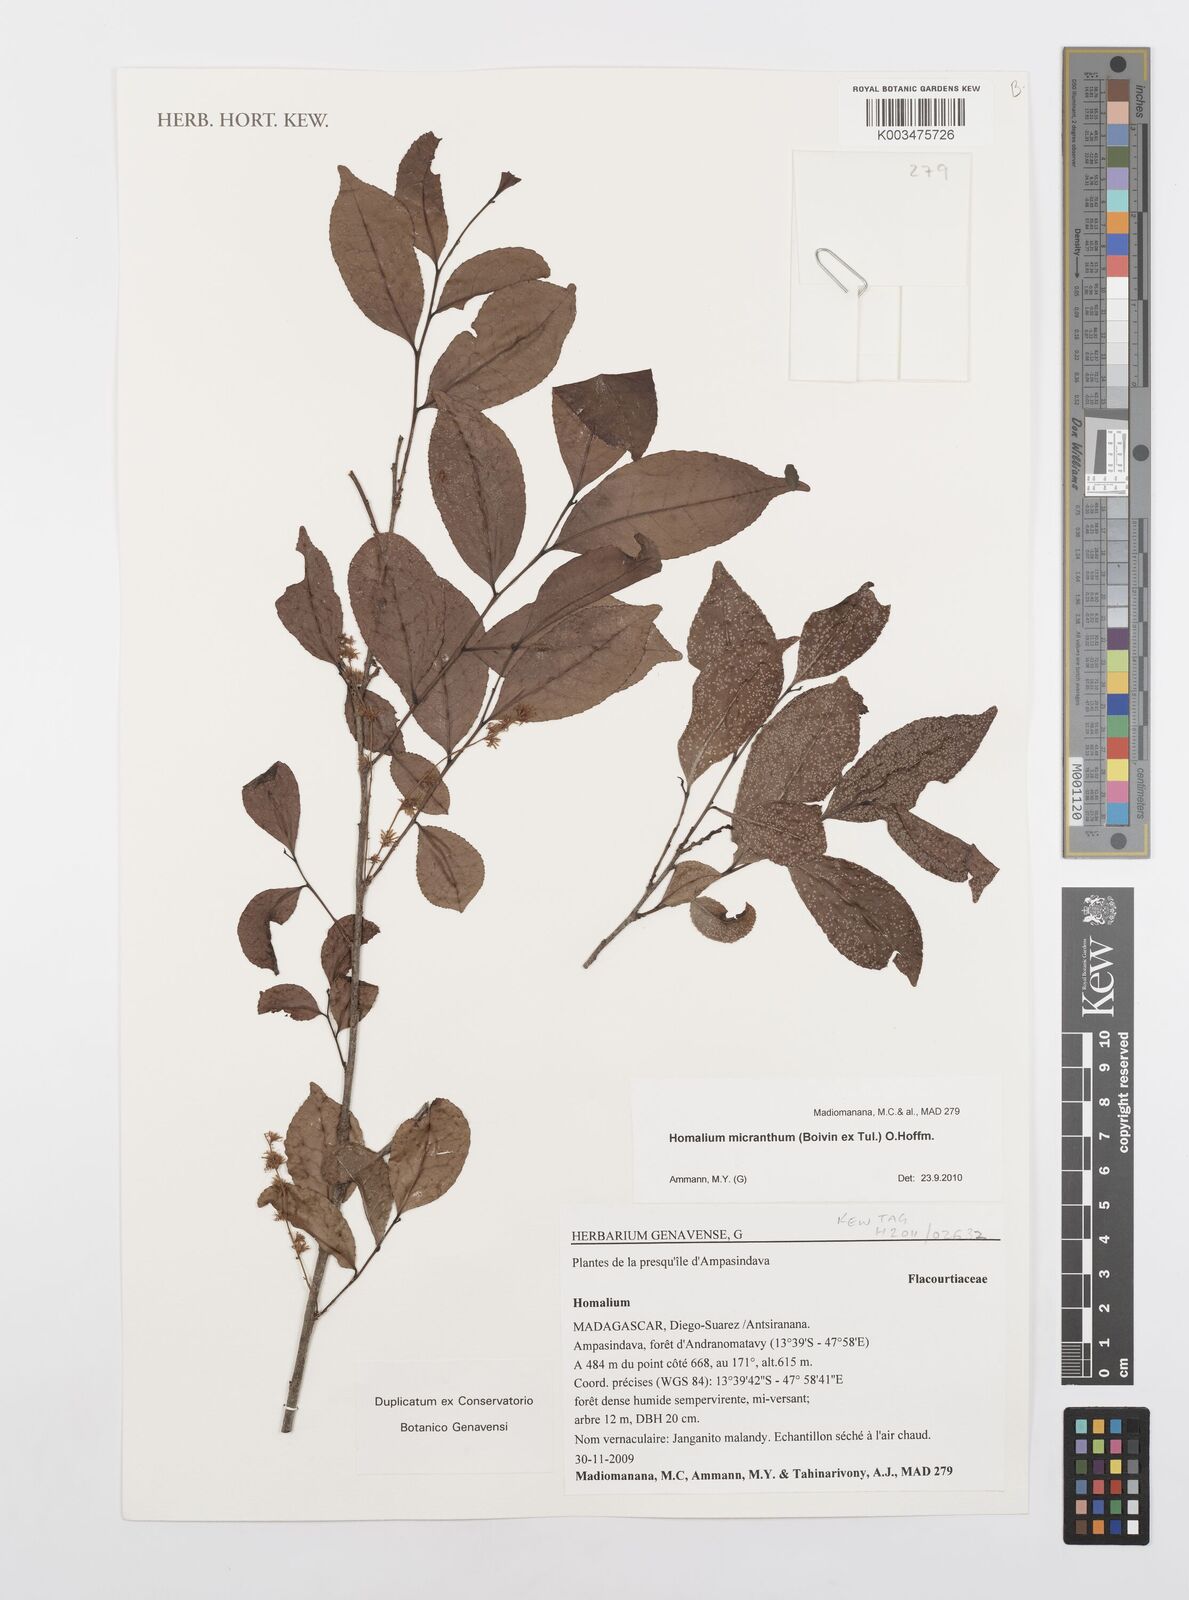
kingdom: Plantae
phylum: Tracheophyta
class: Magnoliopsida
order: Malpighiales
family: Salicaceae
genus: Homalium
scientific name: Homalium micranthum
